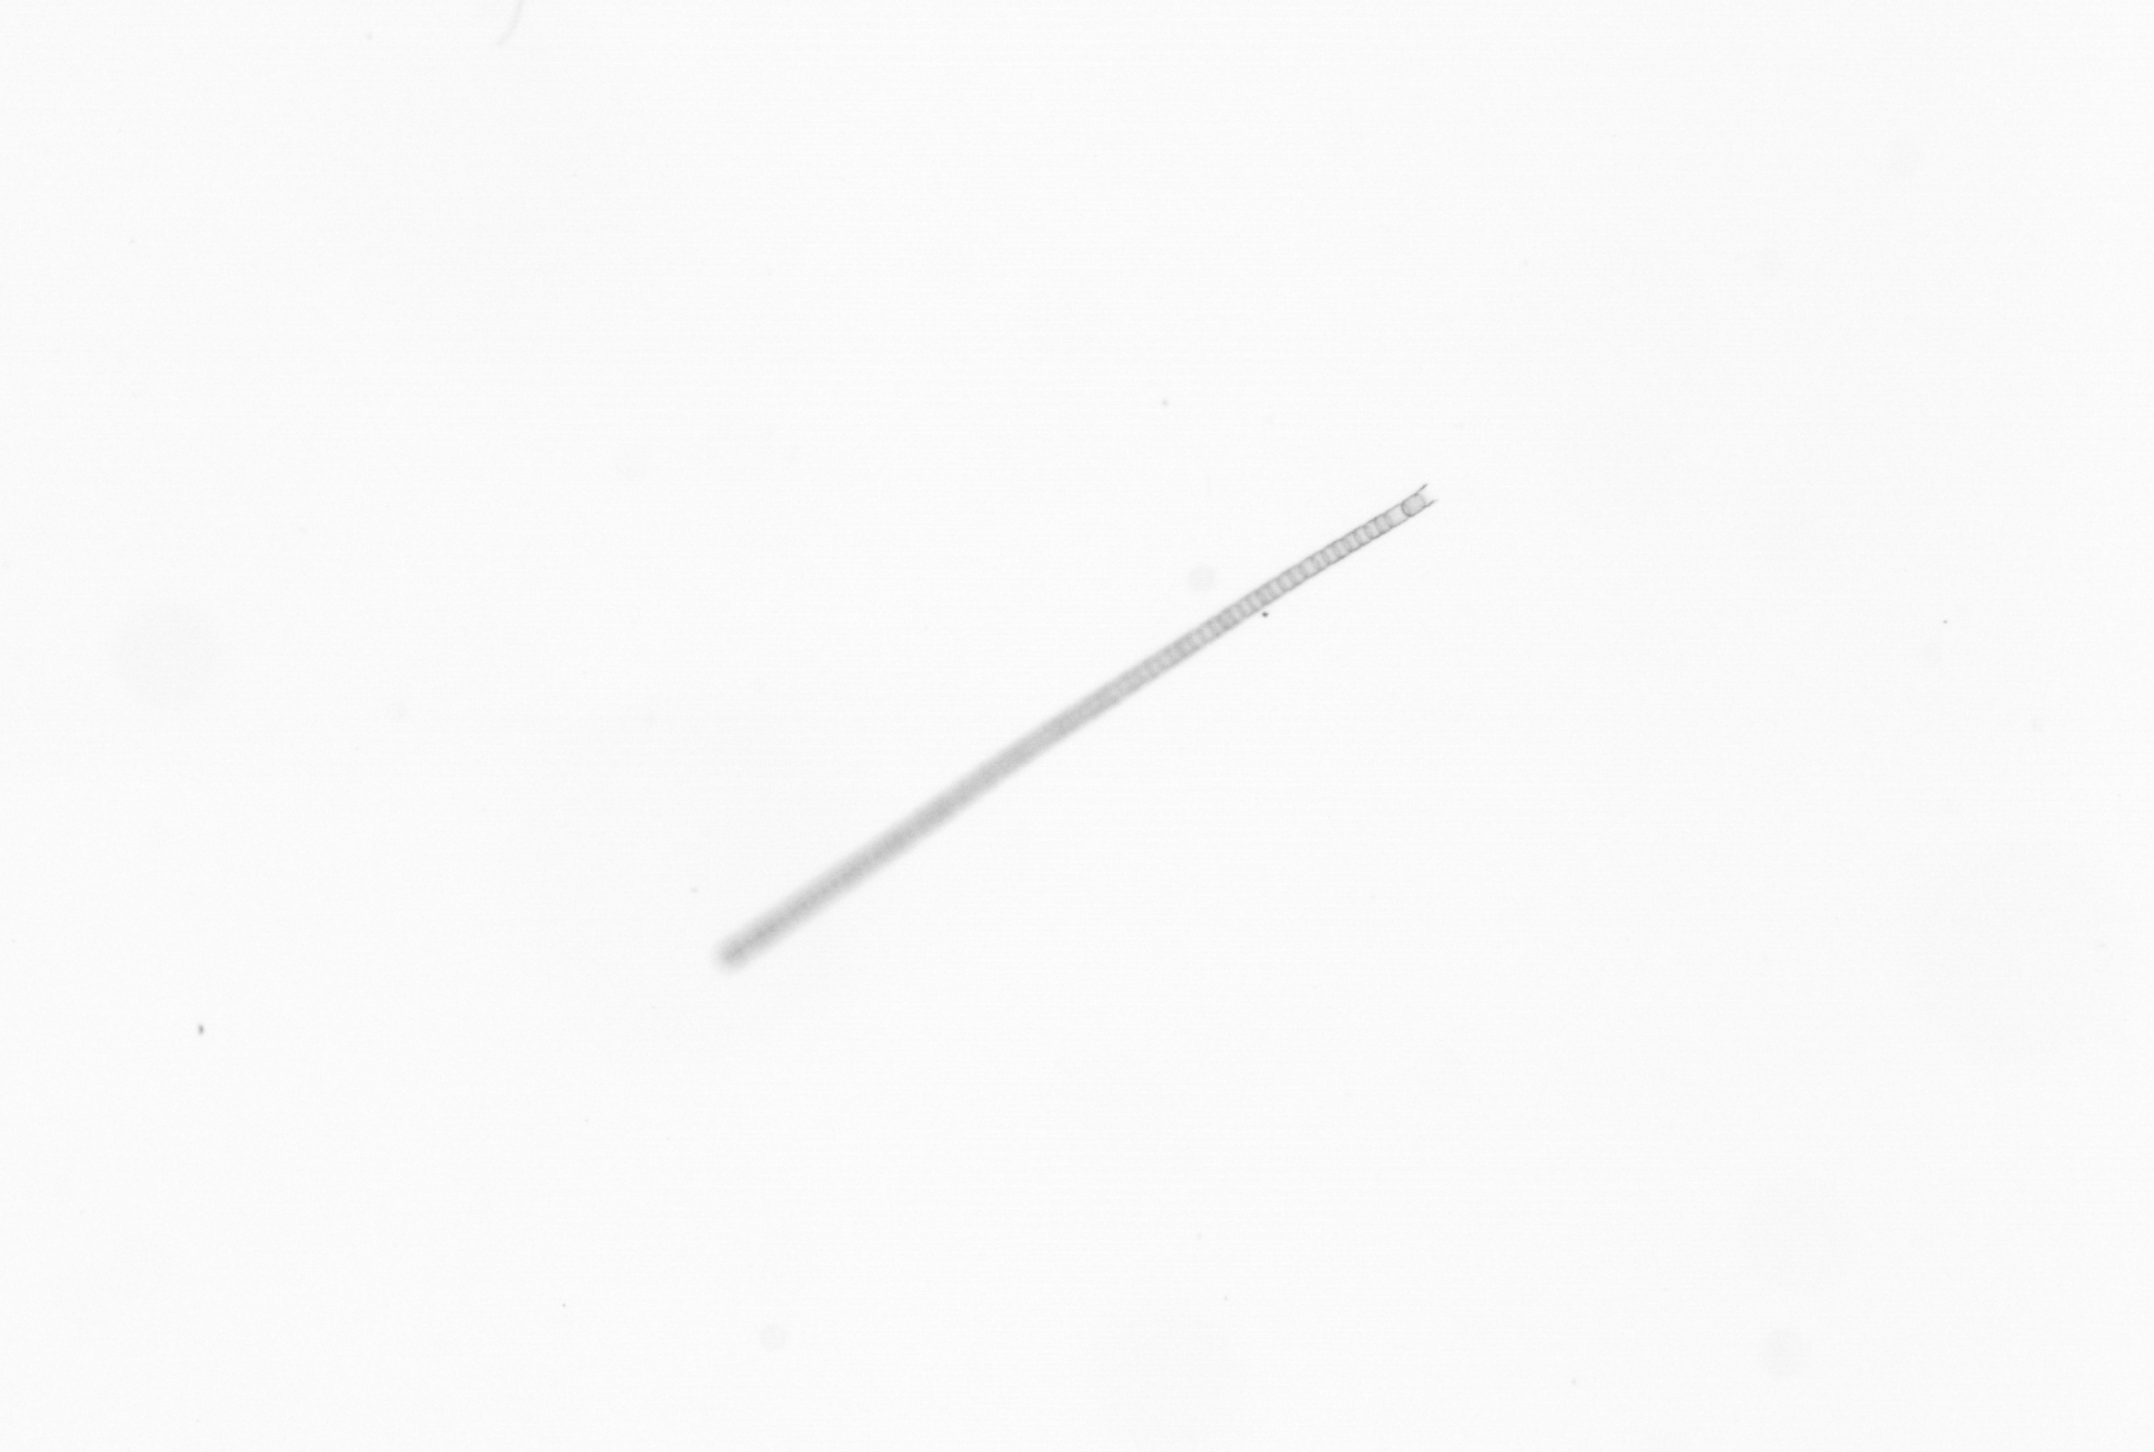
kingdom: Chromista
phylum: Ochrophyta
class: Bacillariophyceae
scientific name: Bacillariophyceae
